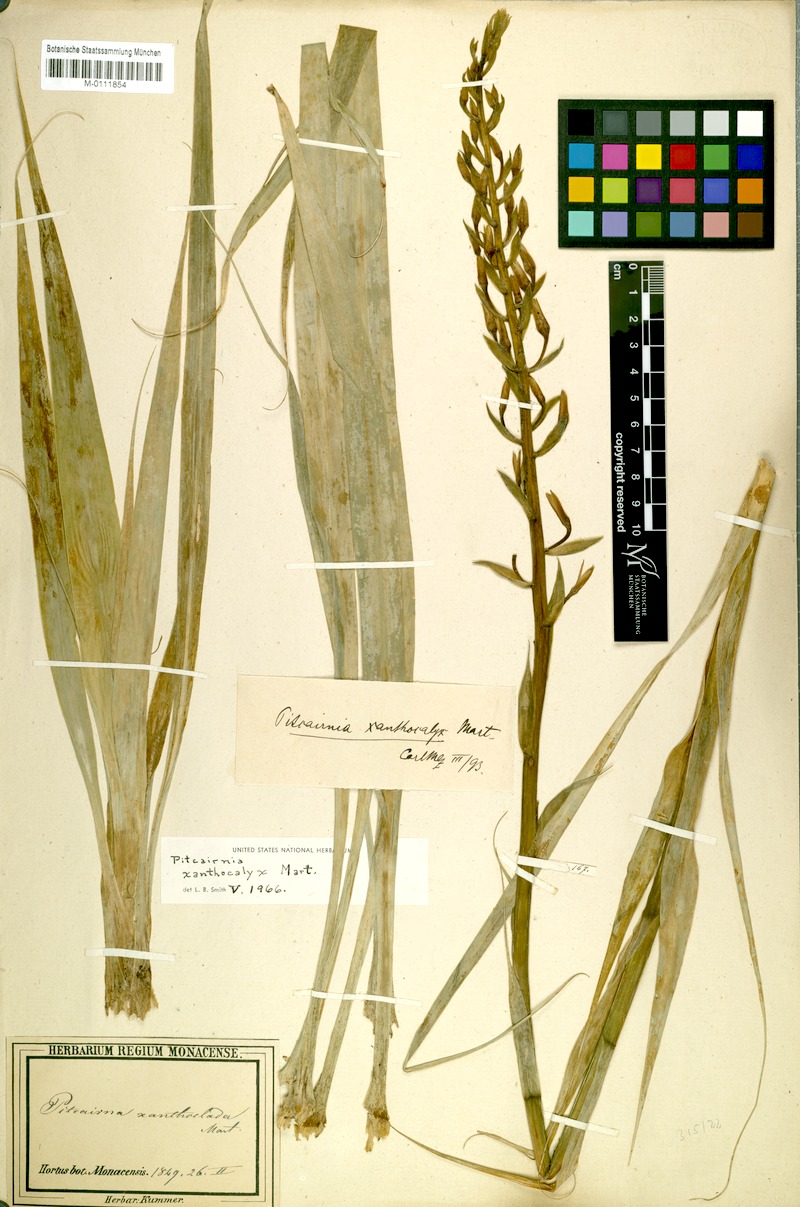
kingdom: Plantae
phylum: Tracheophyta
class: Liliopsida
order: Poales
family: Bromeliaceae
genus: Pitcairnia
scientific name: Pitcairnia xanthocalyx
